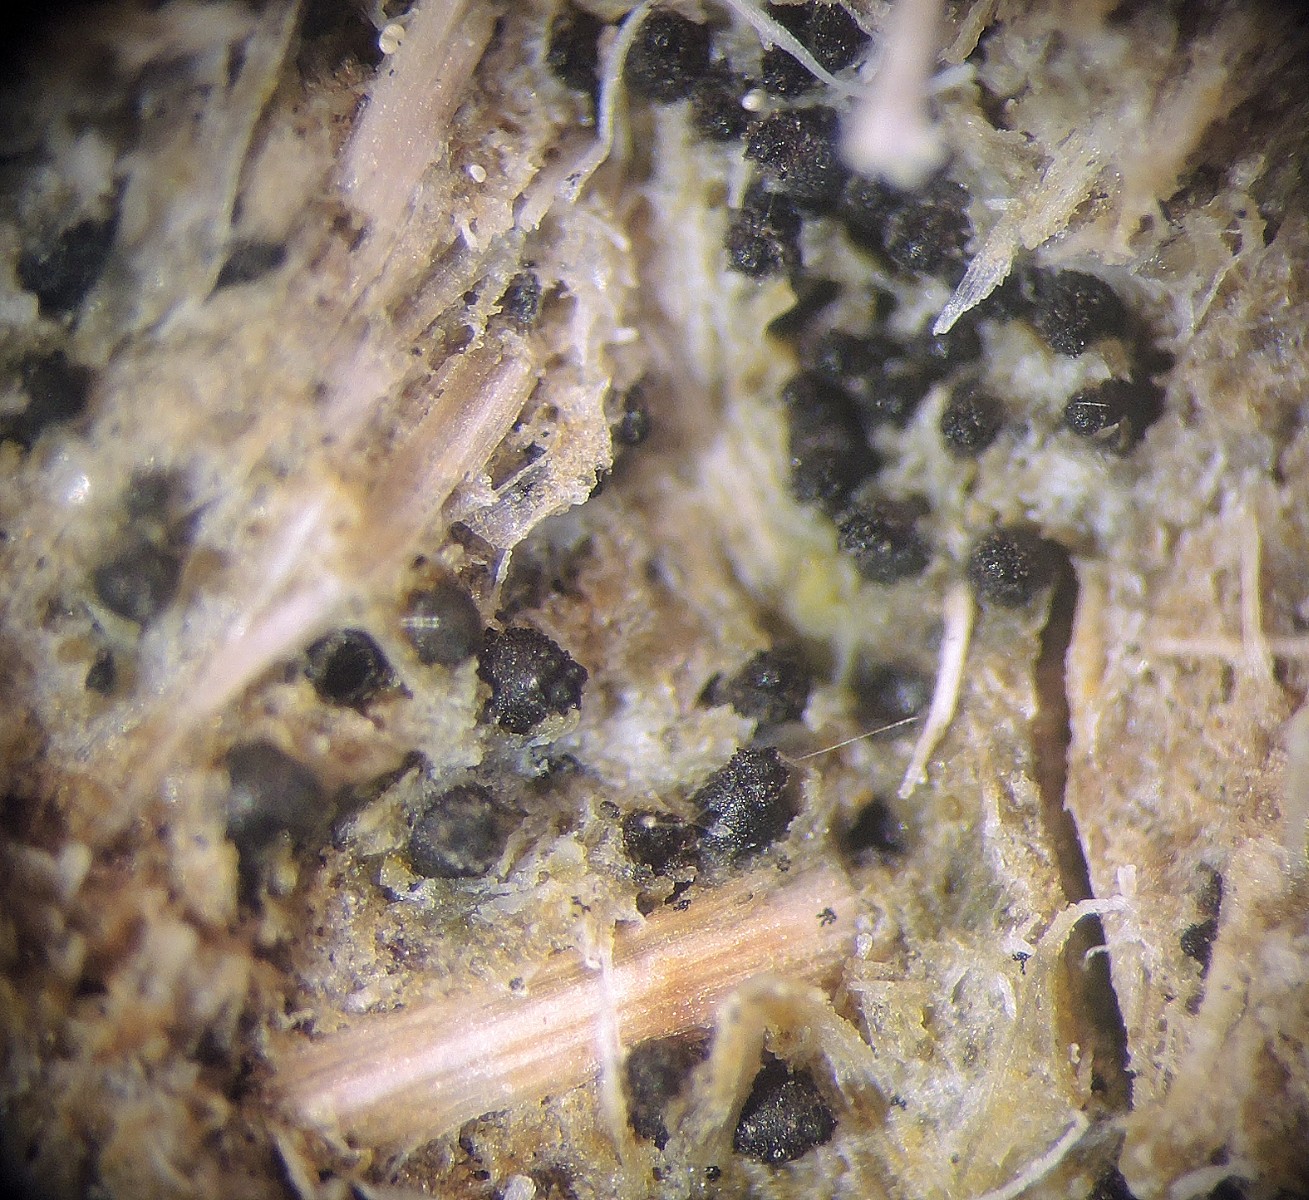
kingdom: Fungi
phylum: Ascomycota
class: Sordariomycetes
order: Sordariales
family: Neoschizotheciaceae
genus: Neoschizothecium
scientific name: Neoschizothecium conicum
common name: kegle-kernesvamp
